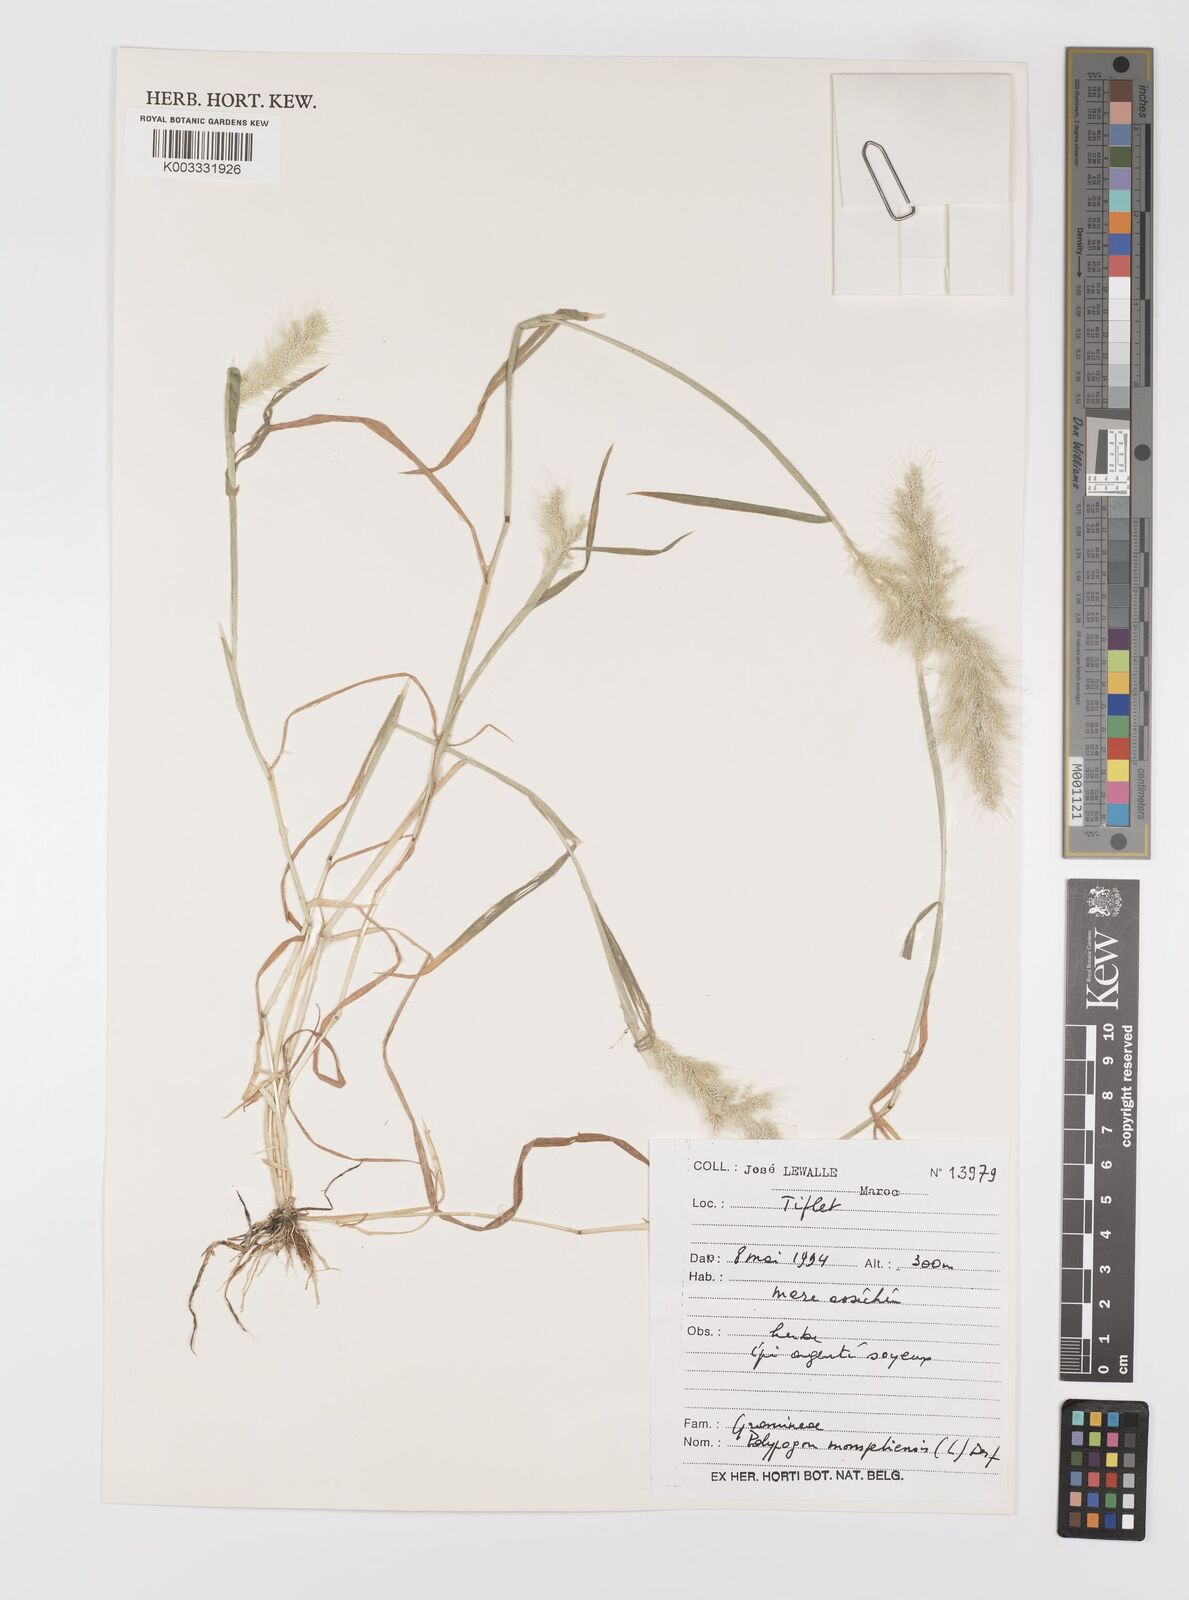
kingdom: Plantae
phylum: Tracheophyta
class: Liliopsida
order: Poales
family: Poaceae
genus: Polypogon
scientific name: Polypogon monspeliensis
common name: Annual rabbitsfoot grass
